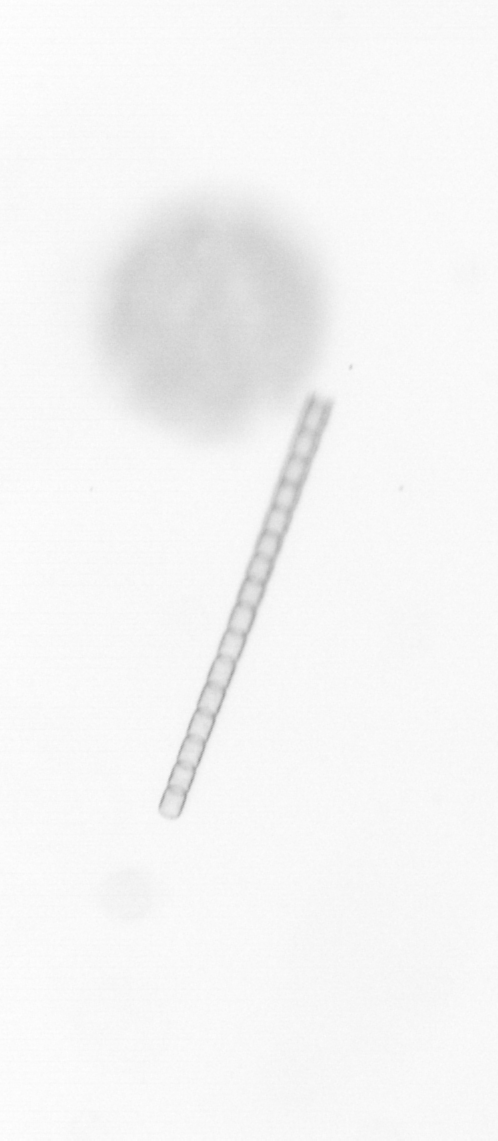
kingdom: Chromista
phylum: Ochrophyta
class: Bacillariophyceae
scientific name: Bacillariophyceae
